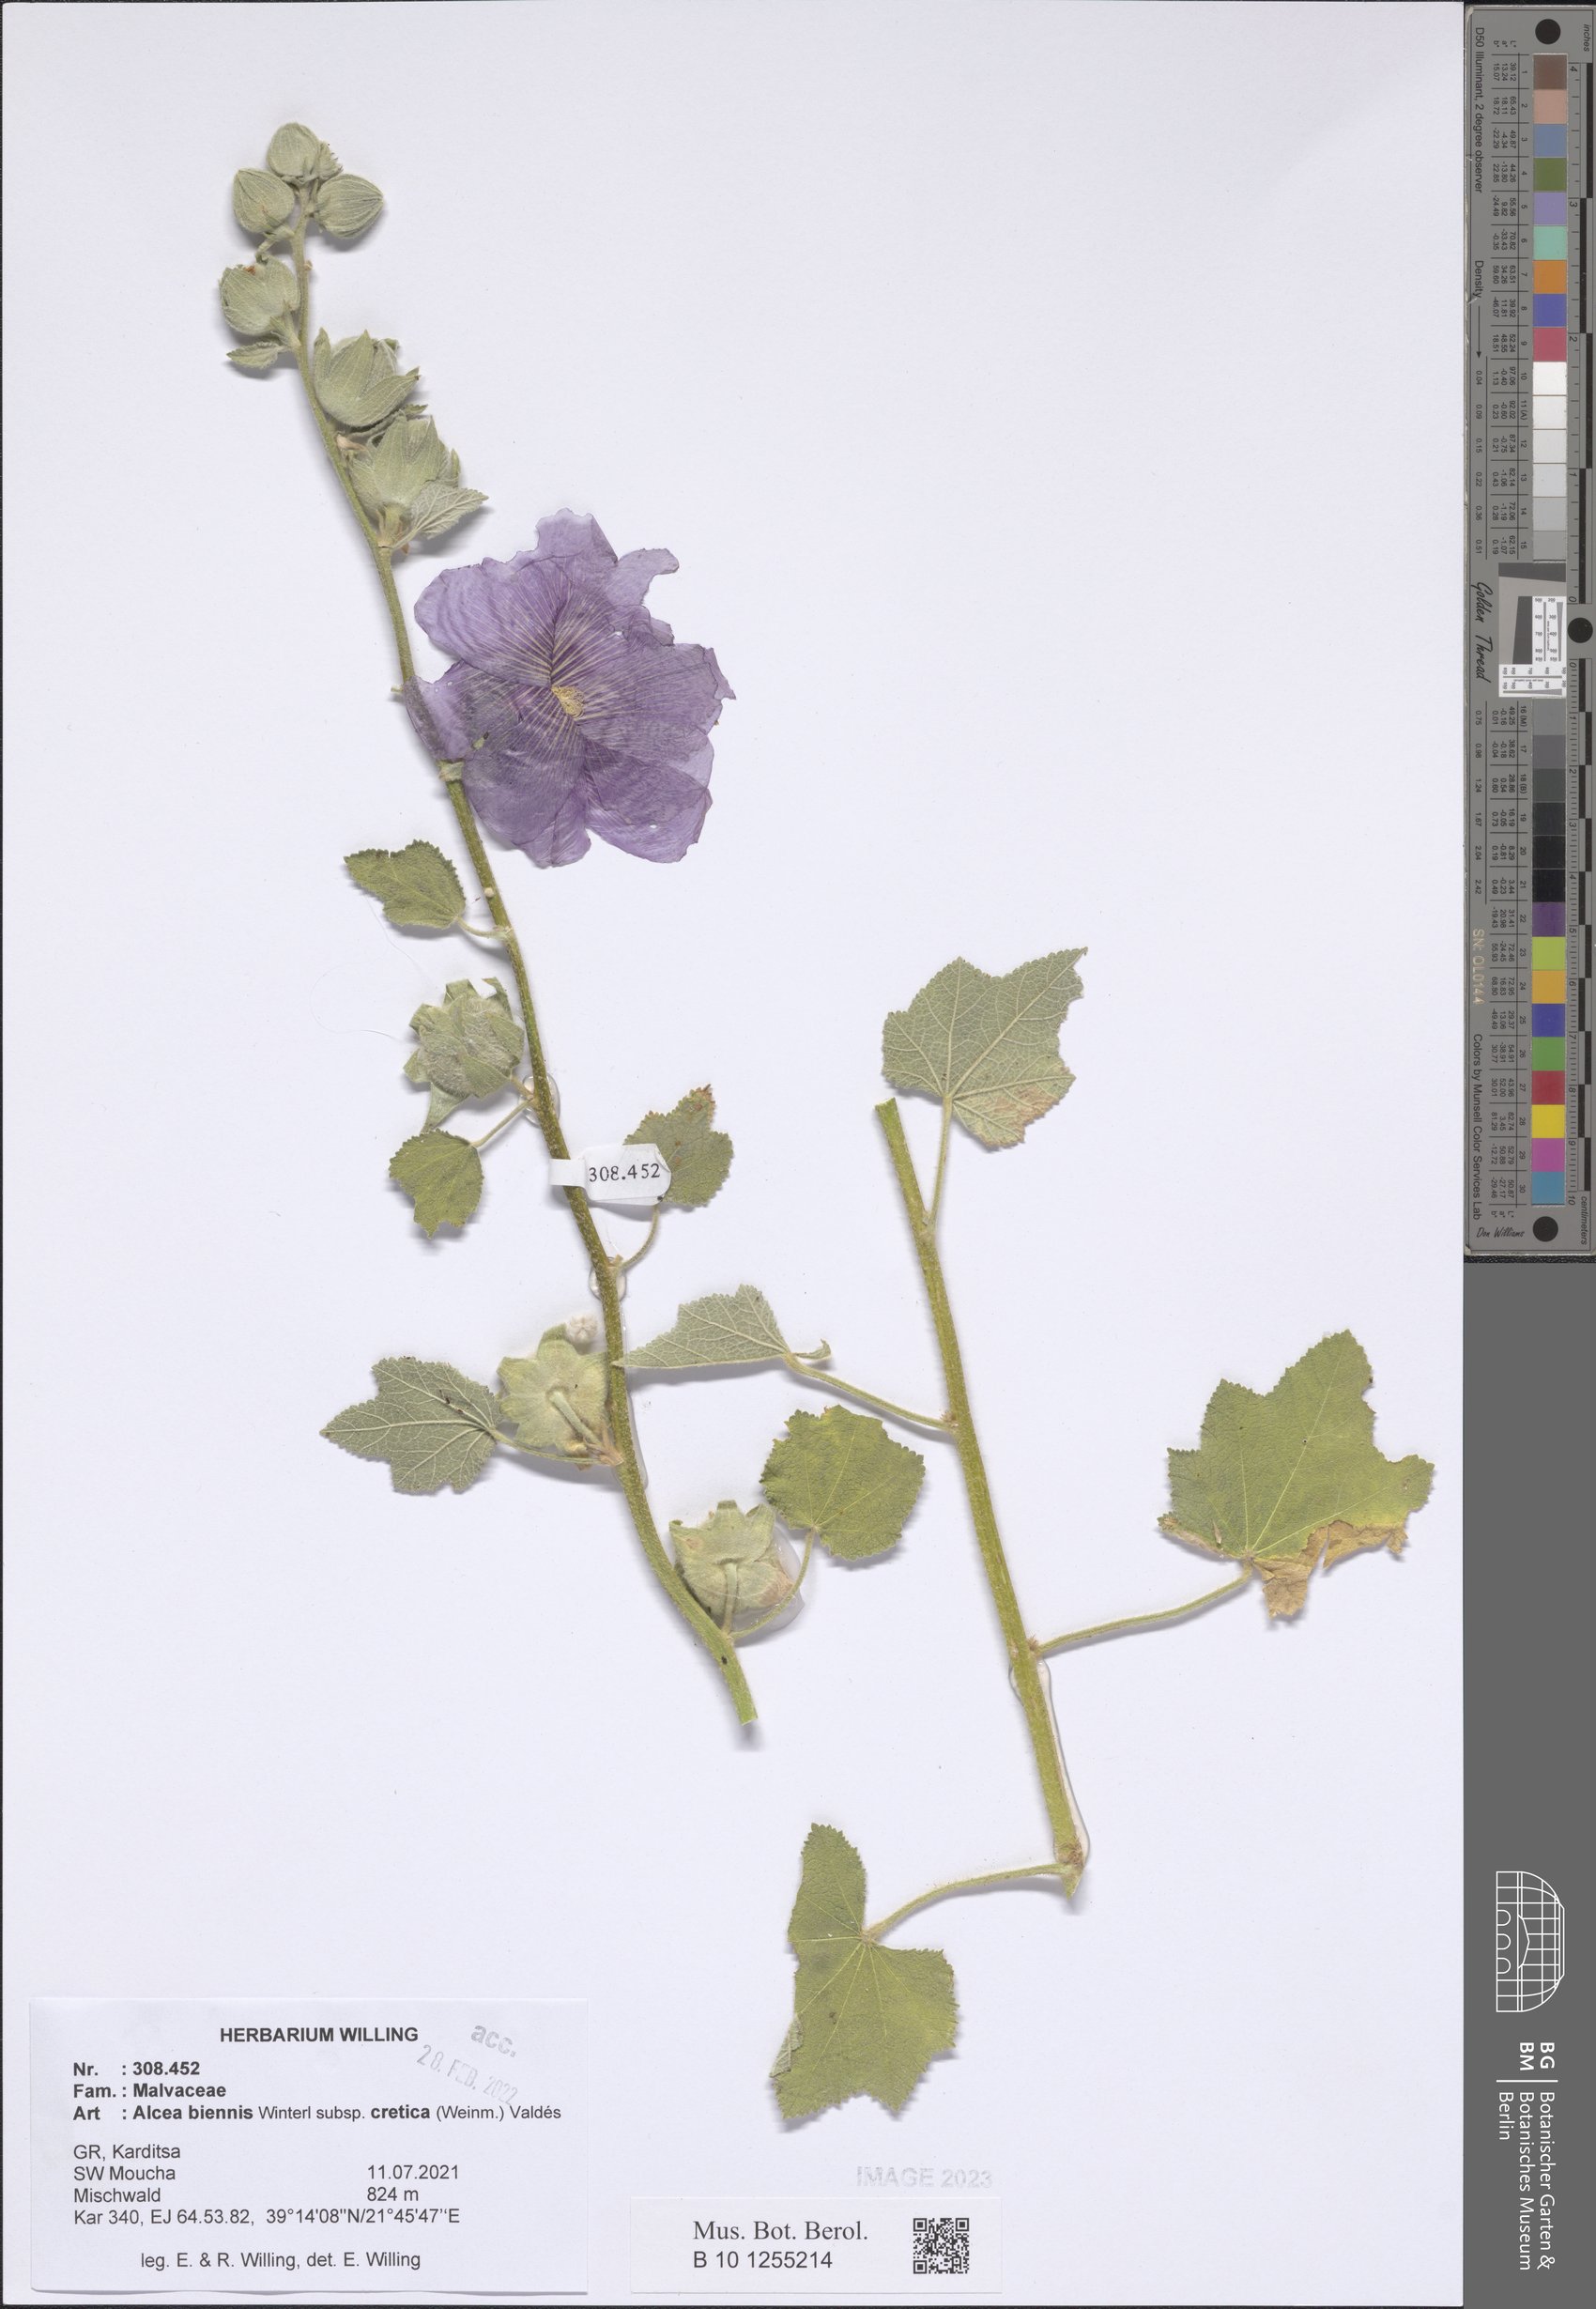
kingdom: Plantae
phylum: Tracheophyta
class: Magnoliopsida
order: Malvales
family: Malvaceae
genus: Alcea
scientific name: Alcea biennis
